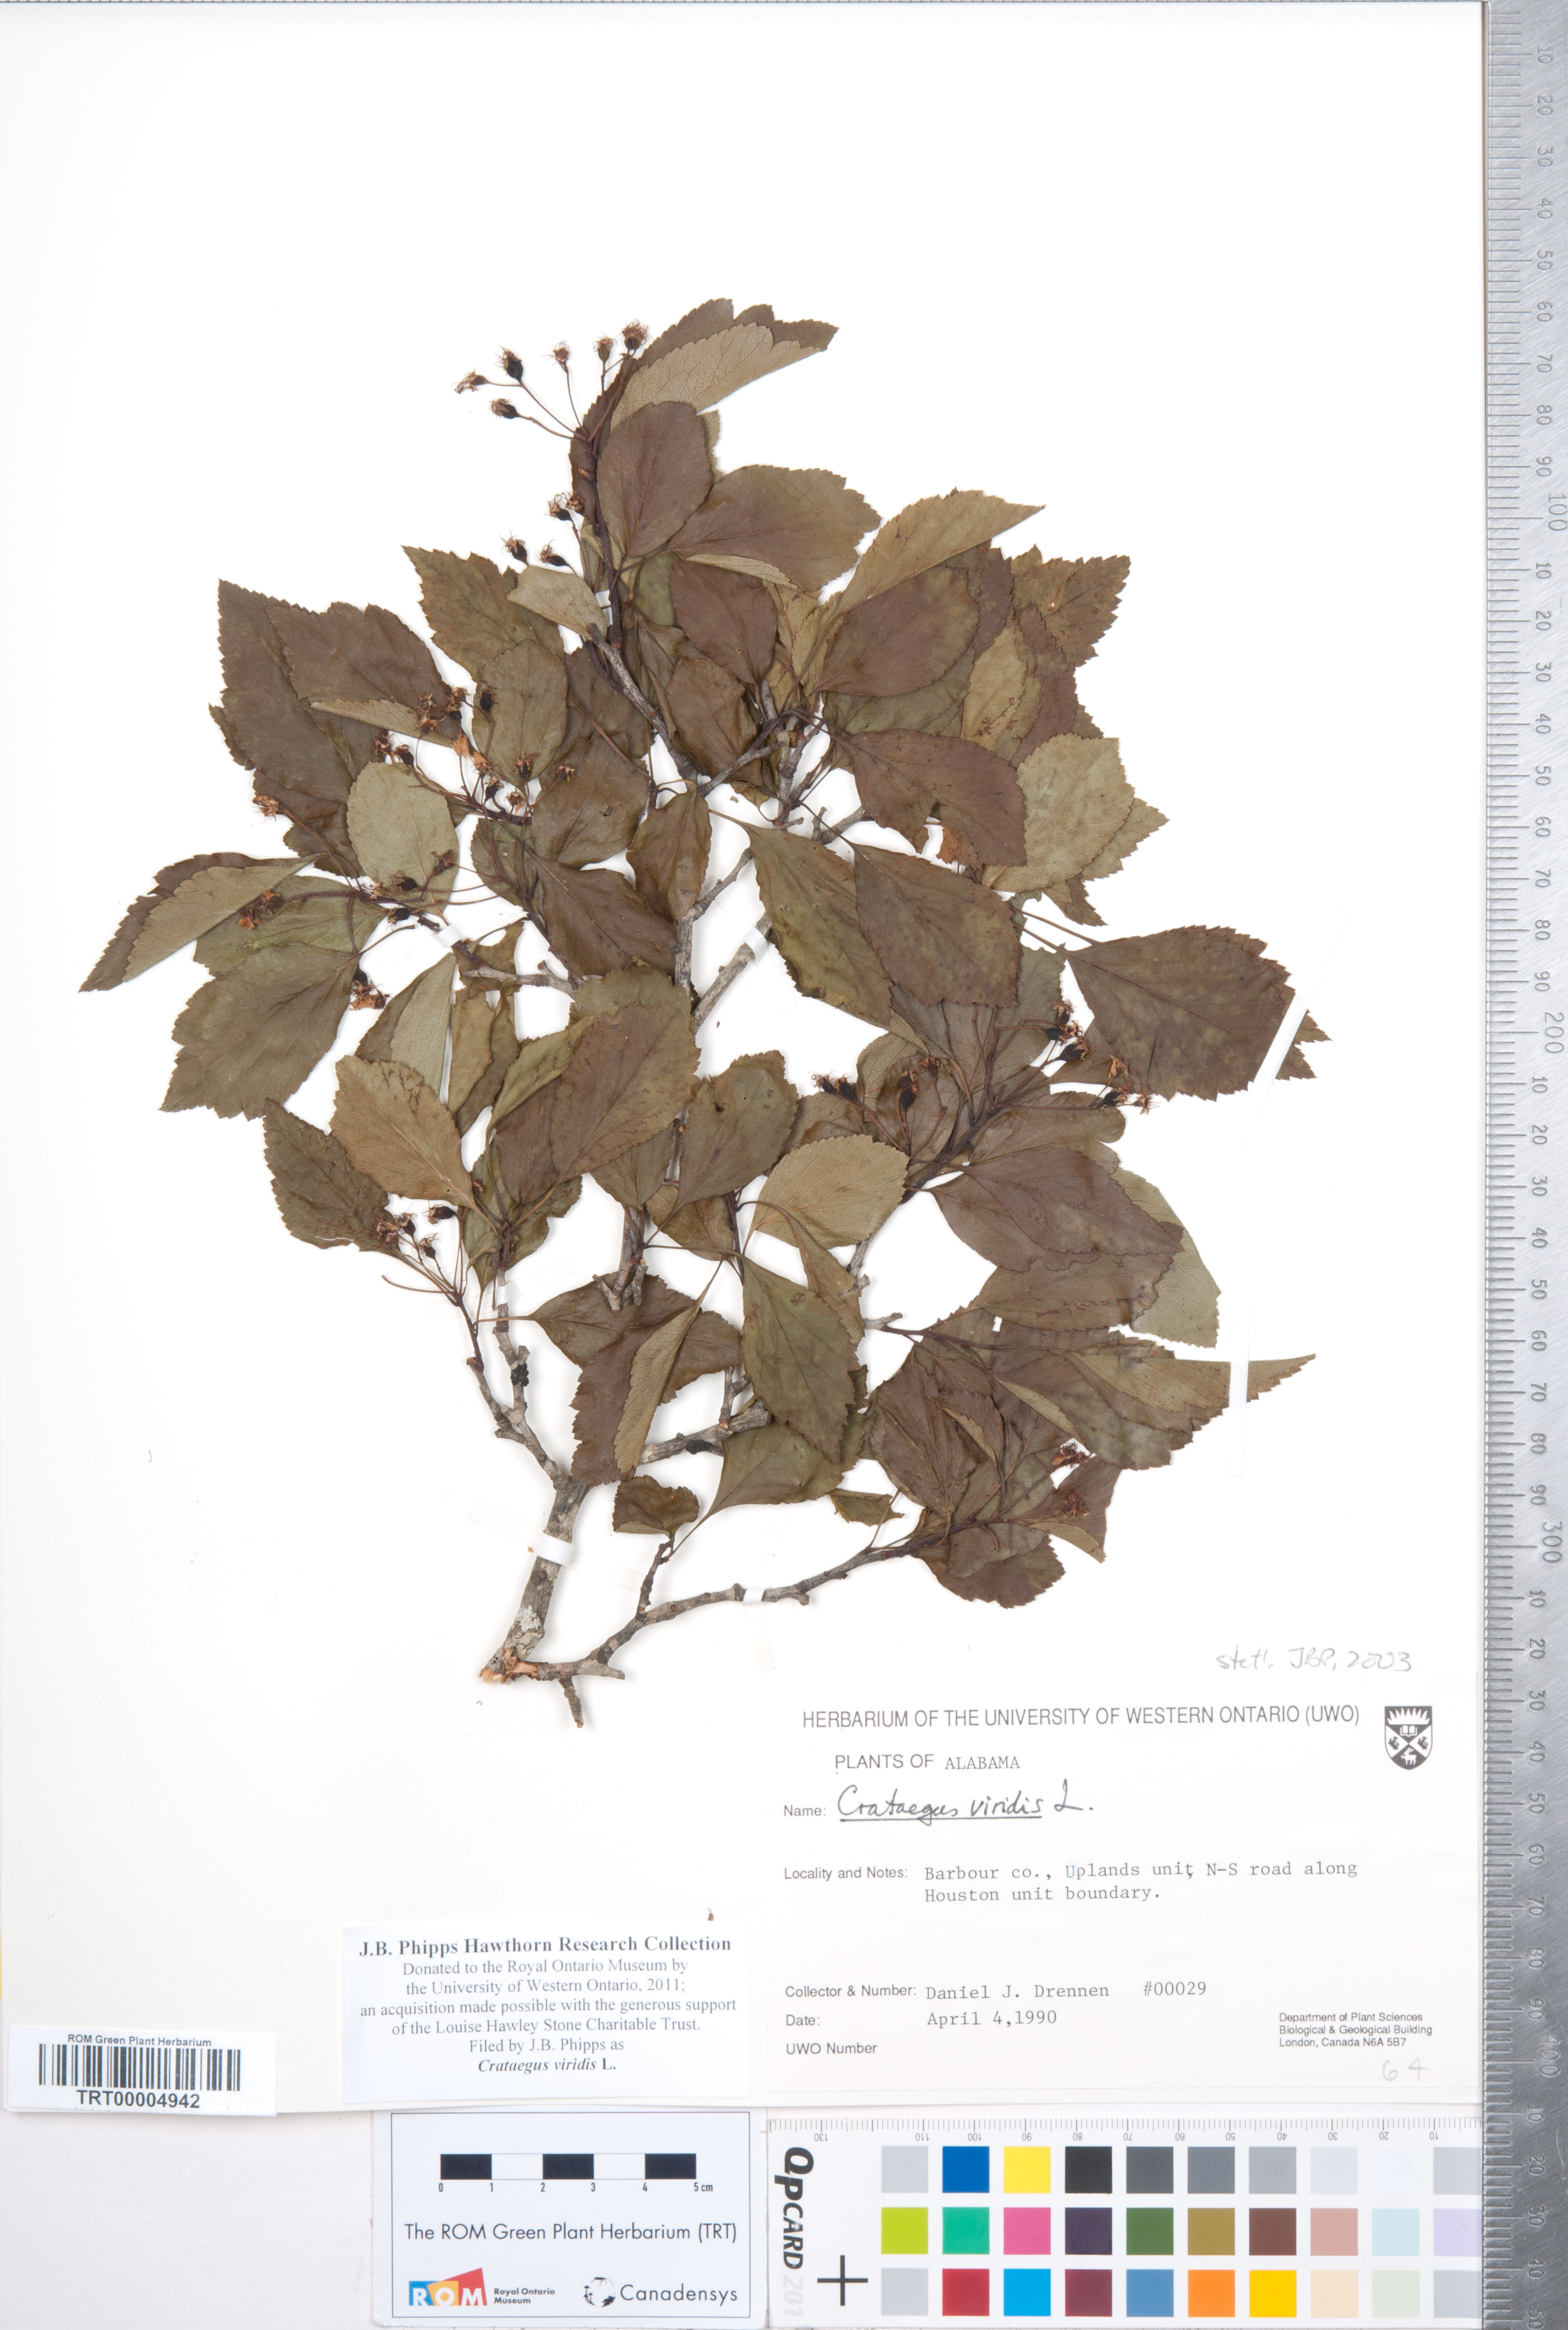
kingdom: Plantae
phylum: Tracheophyta
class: Magnoliopsida
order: Rosales
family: Rosaceae
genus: Crataegus
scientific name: Crataegus viridis
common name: Southernthorn
